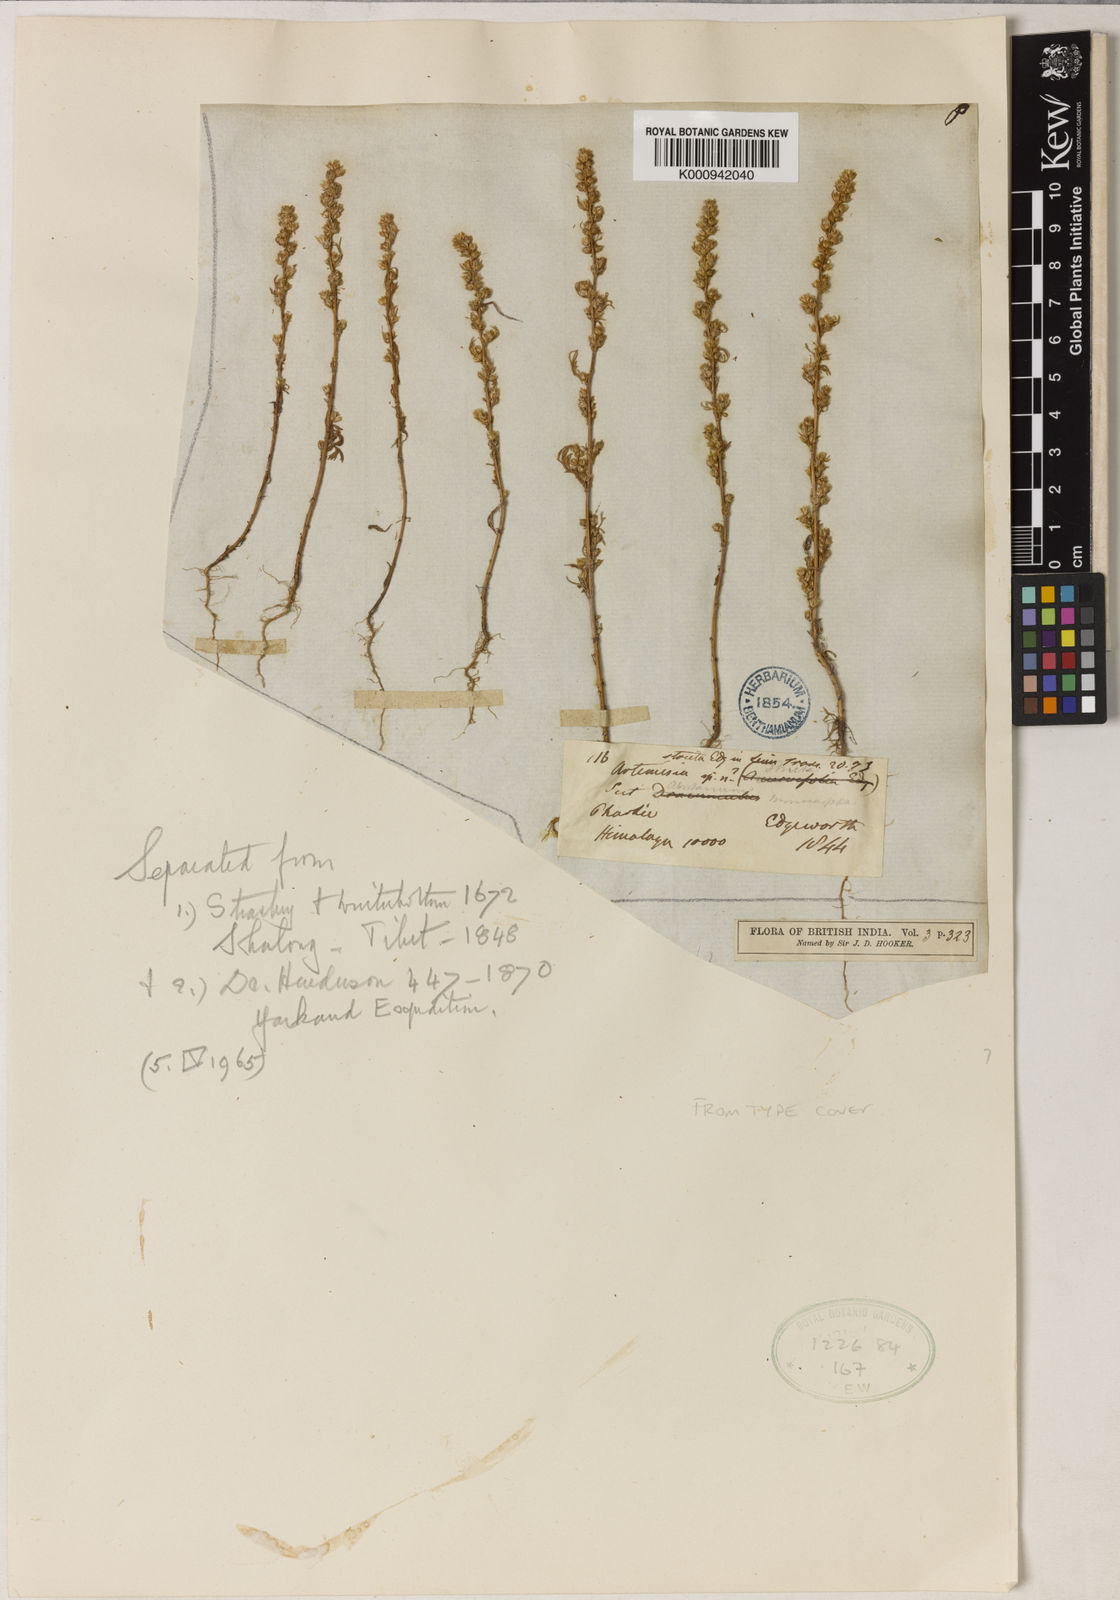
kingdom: Plantae
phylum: Tracheophyta
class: Magnoliopsida
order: Asterales
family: Asteraceae
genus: Artemisia
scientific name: Artemisia stricta
